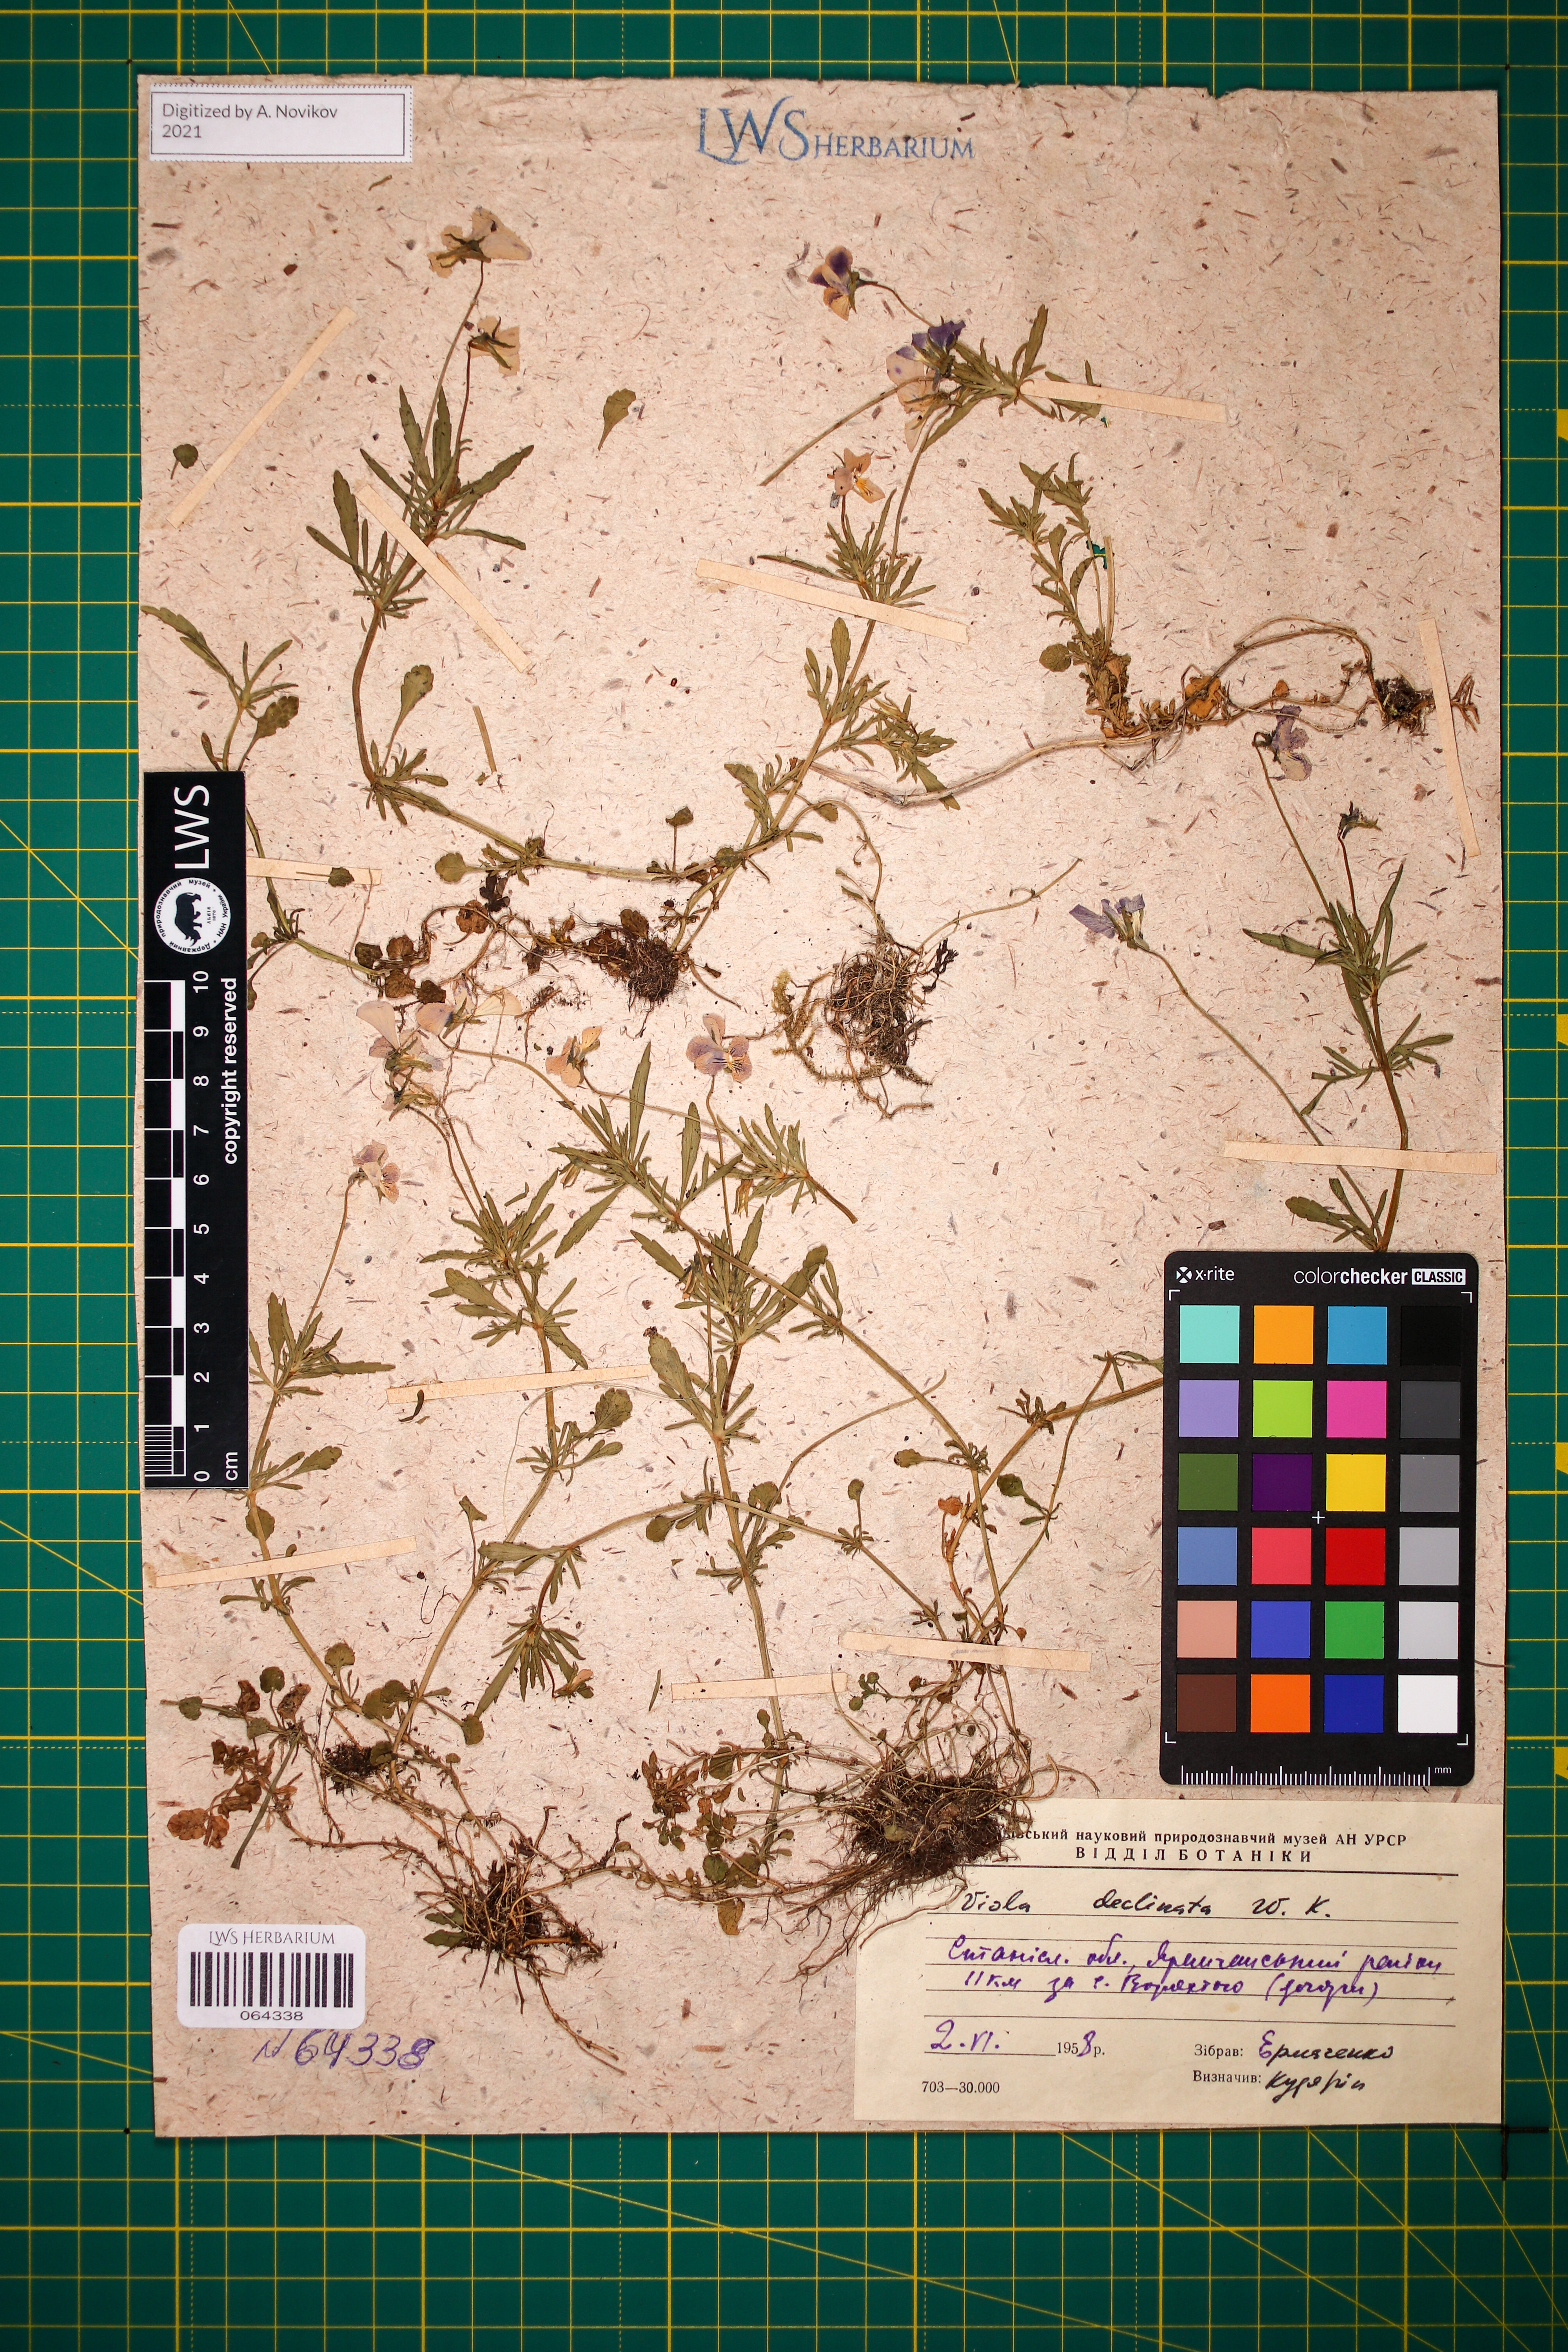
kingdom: Plantae
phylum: Tracheophyta
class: Magnoliopsida
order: Malpighiales
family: Violaceae
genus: Viola
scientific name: Viola declinata
